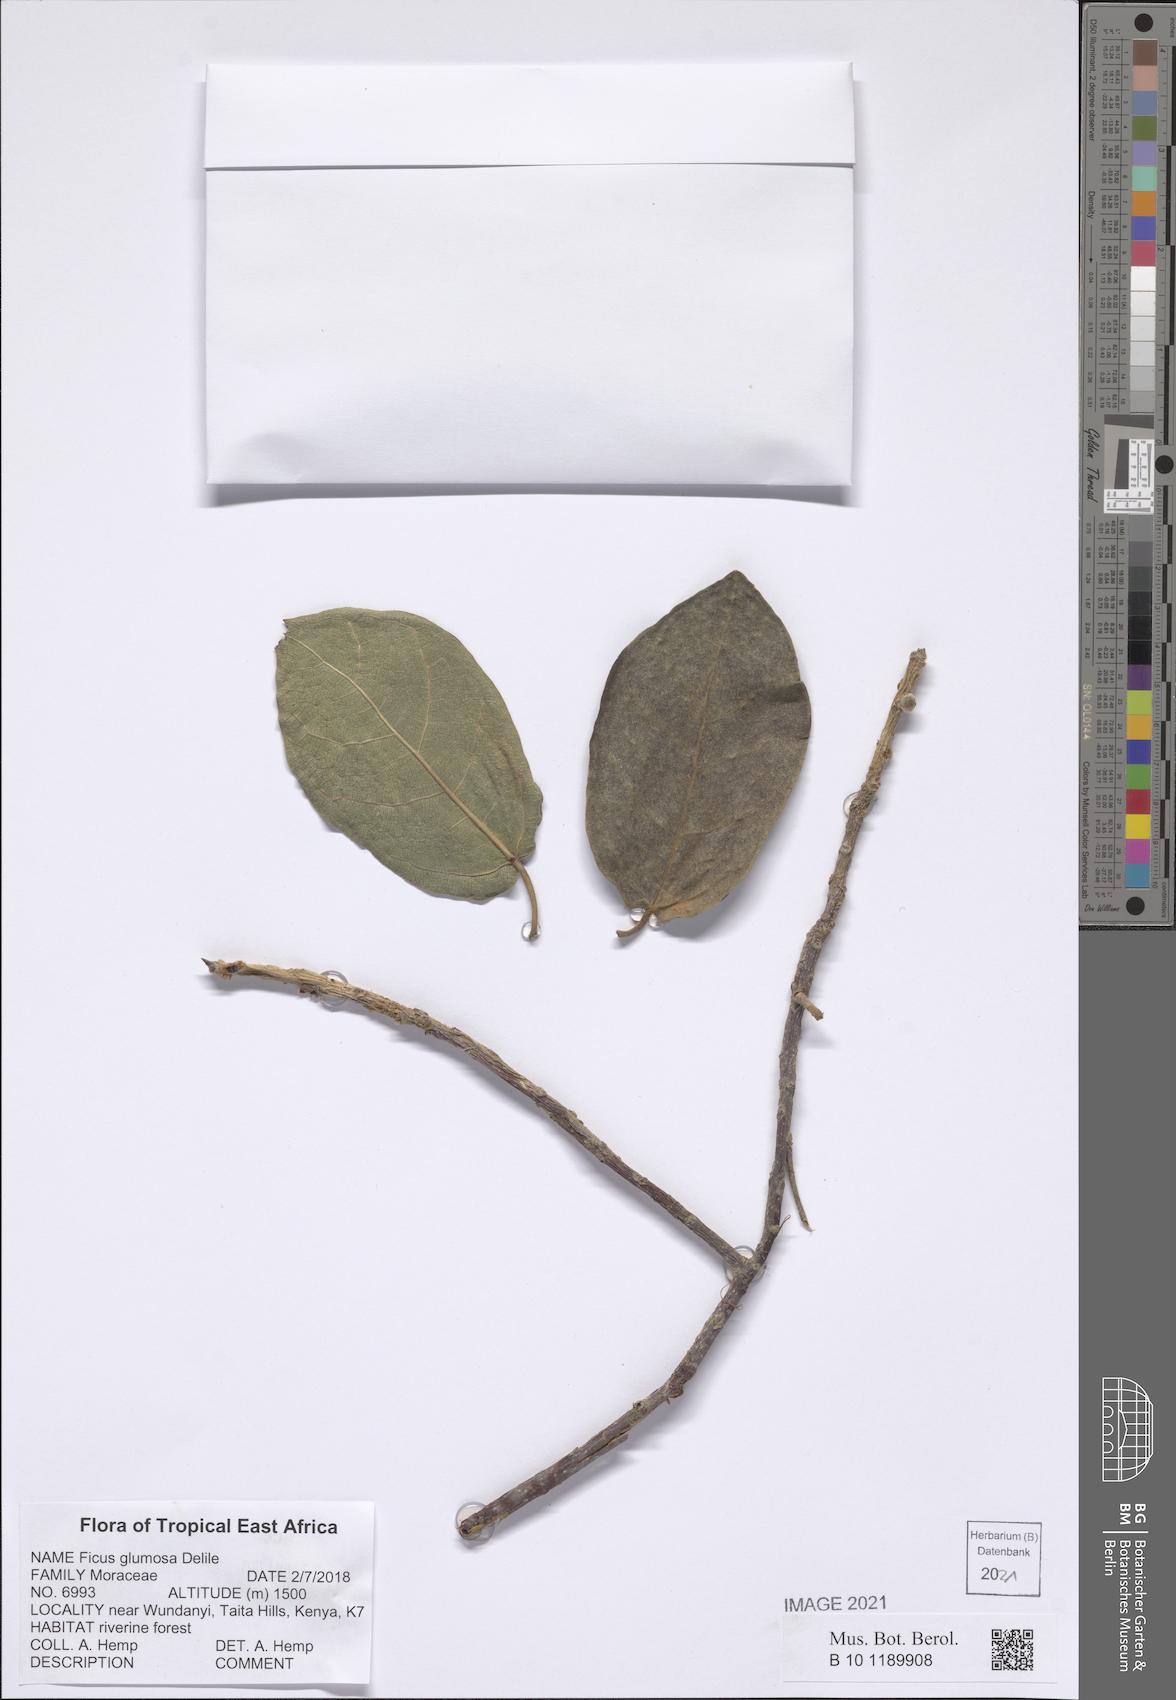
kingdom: Plantae
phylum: Tracheophyta
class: Magnoliopsida
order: Rosales
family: Moraceae
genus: Ficus
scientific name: Ficus glumosa
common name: Hairy rock fig
